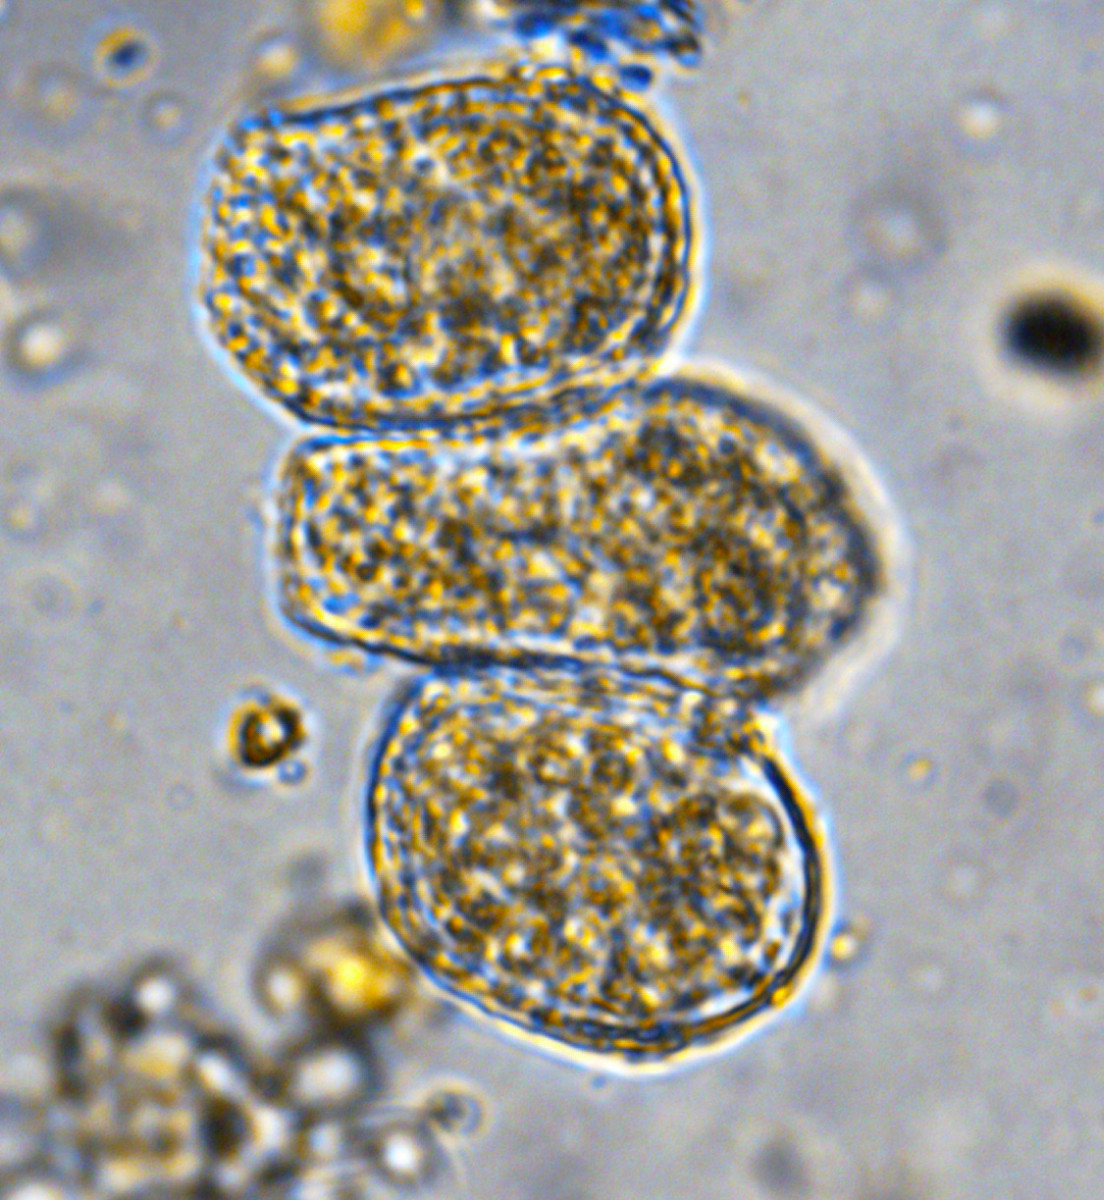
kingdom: Fungi
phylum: Basidiomycota
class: Pucciniomycetes
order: Pucciniales
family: Coleosporiaceae
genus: Coleosporium
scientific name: Coleosporium tussilaginis
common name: almindelig fyrrenålerust
